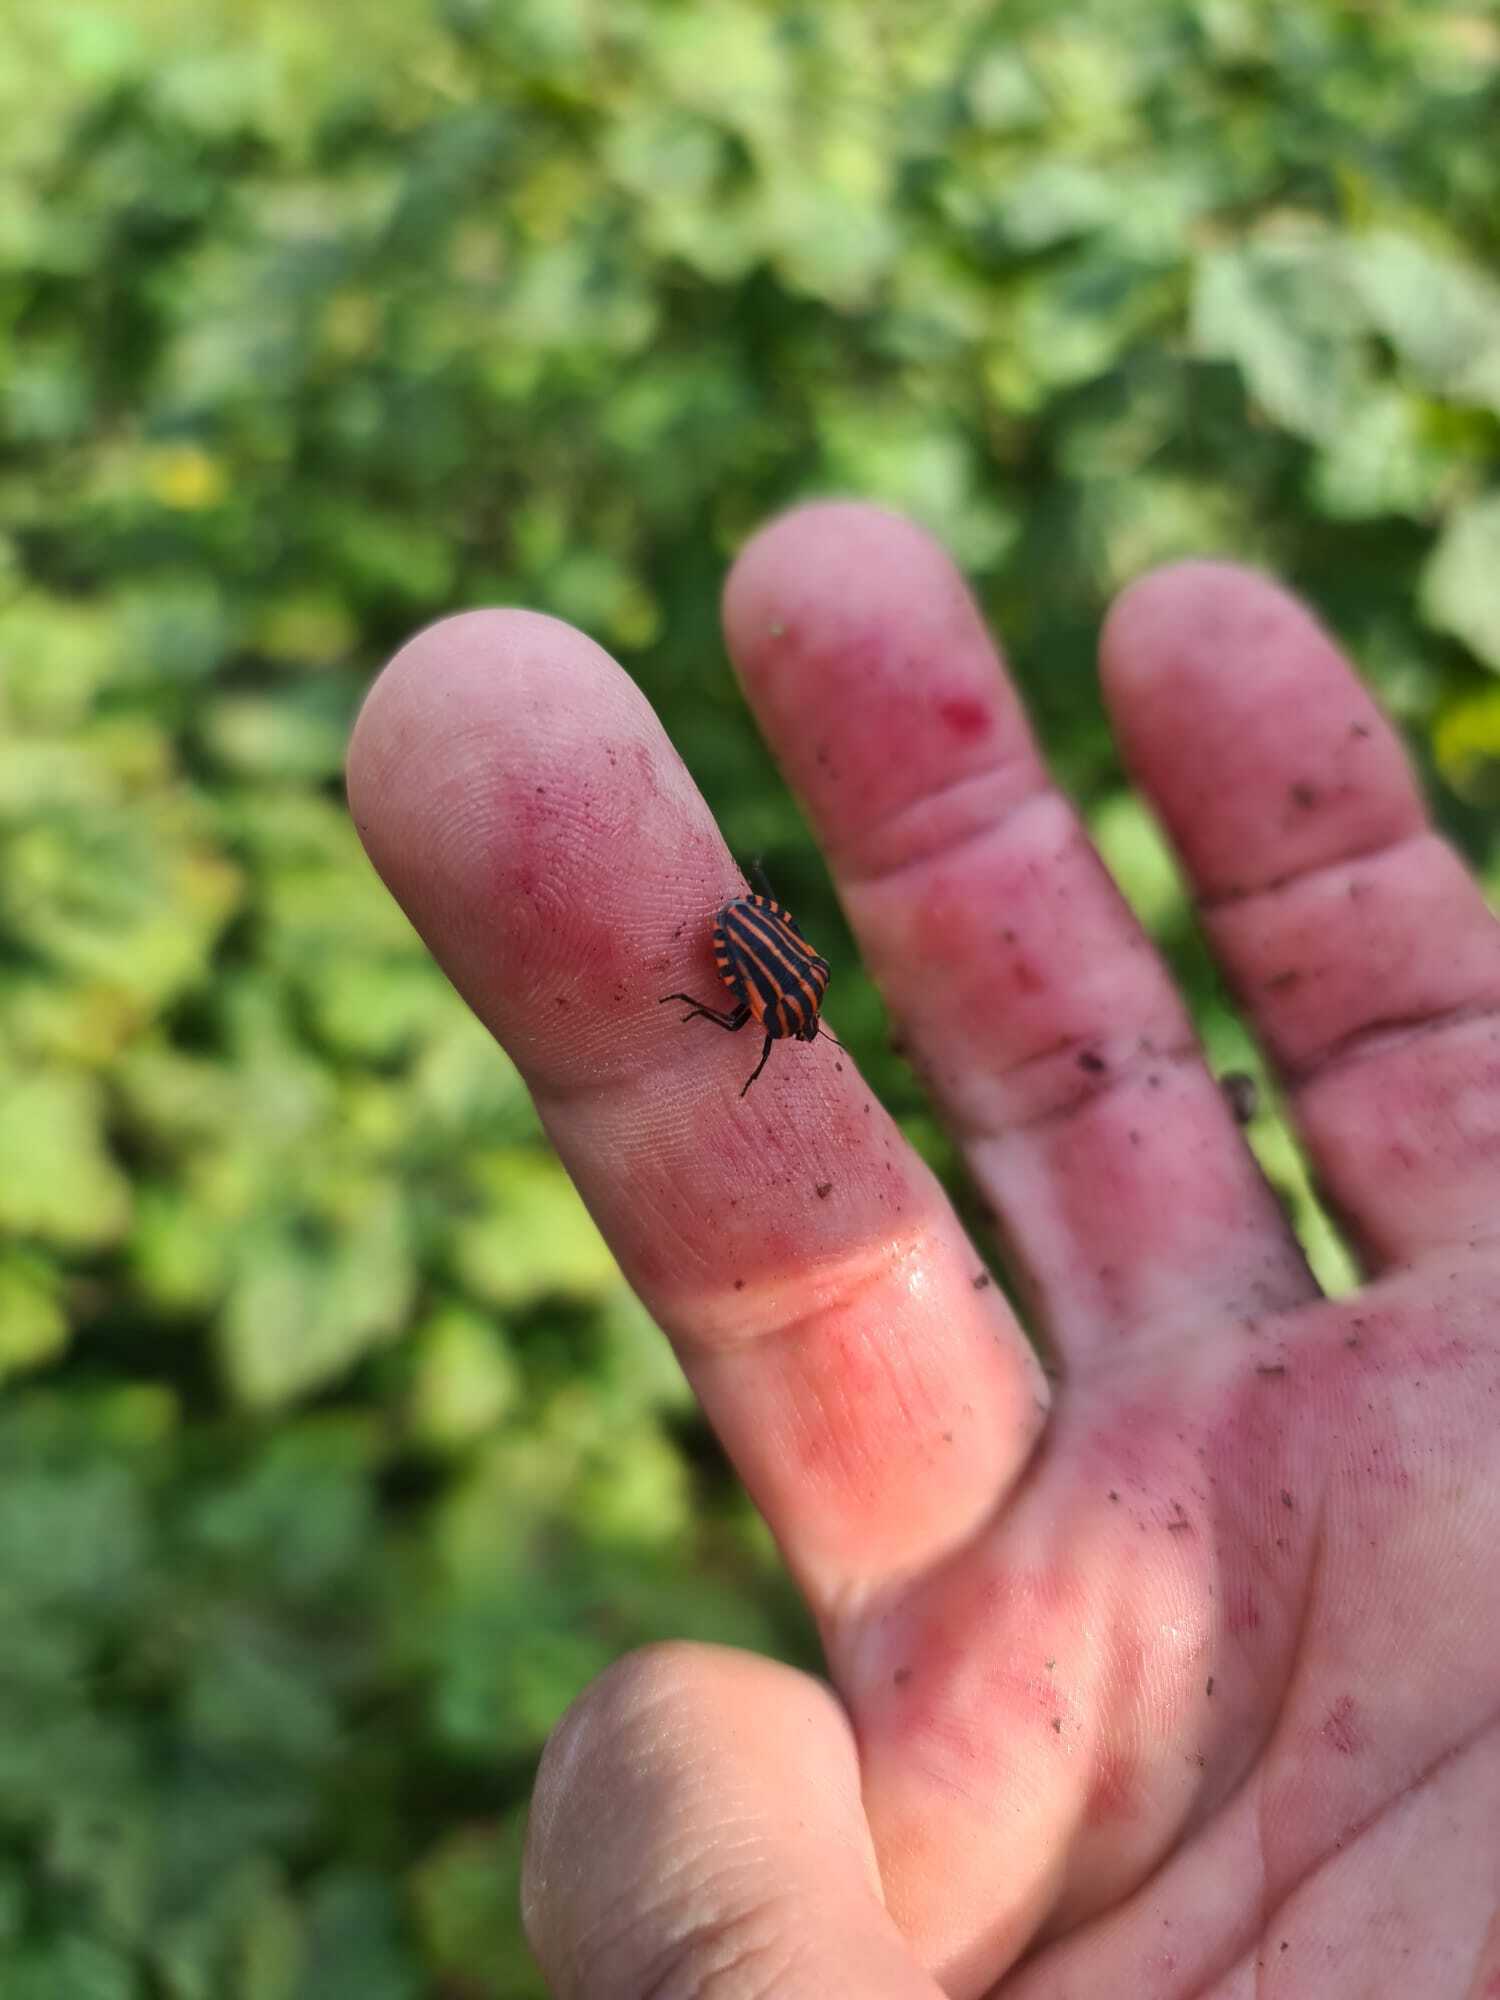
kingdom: Animalia
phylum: Arthropoda
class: Insecta
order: Hemiptera
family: Pentatomidae
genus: Graphosoma
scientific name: Graphosoma italicum
